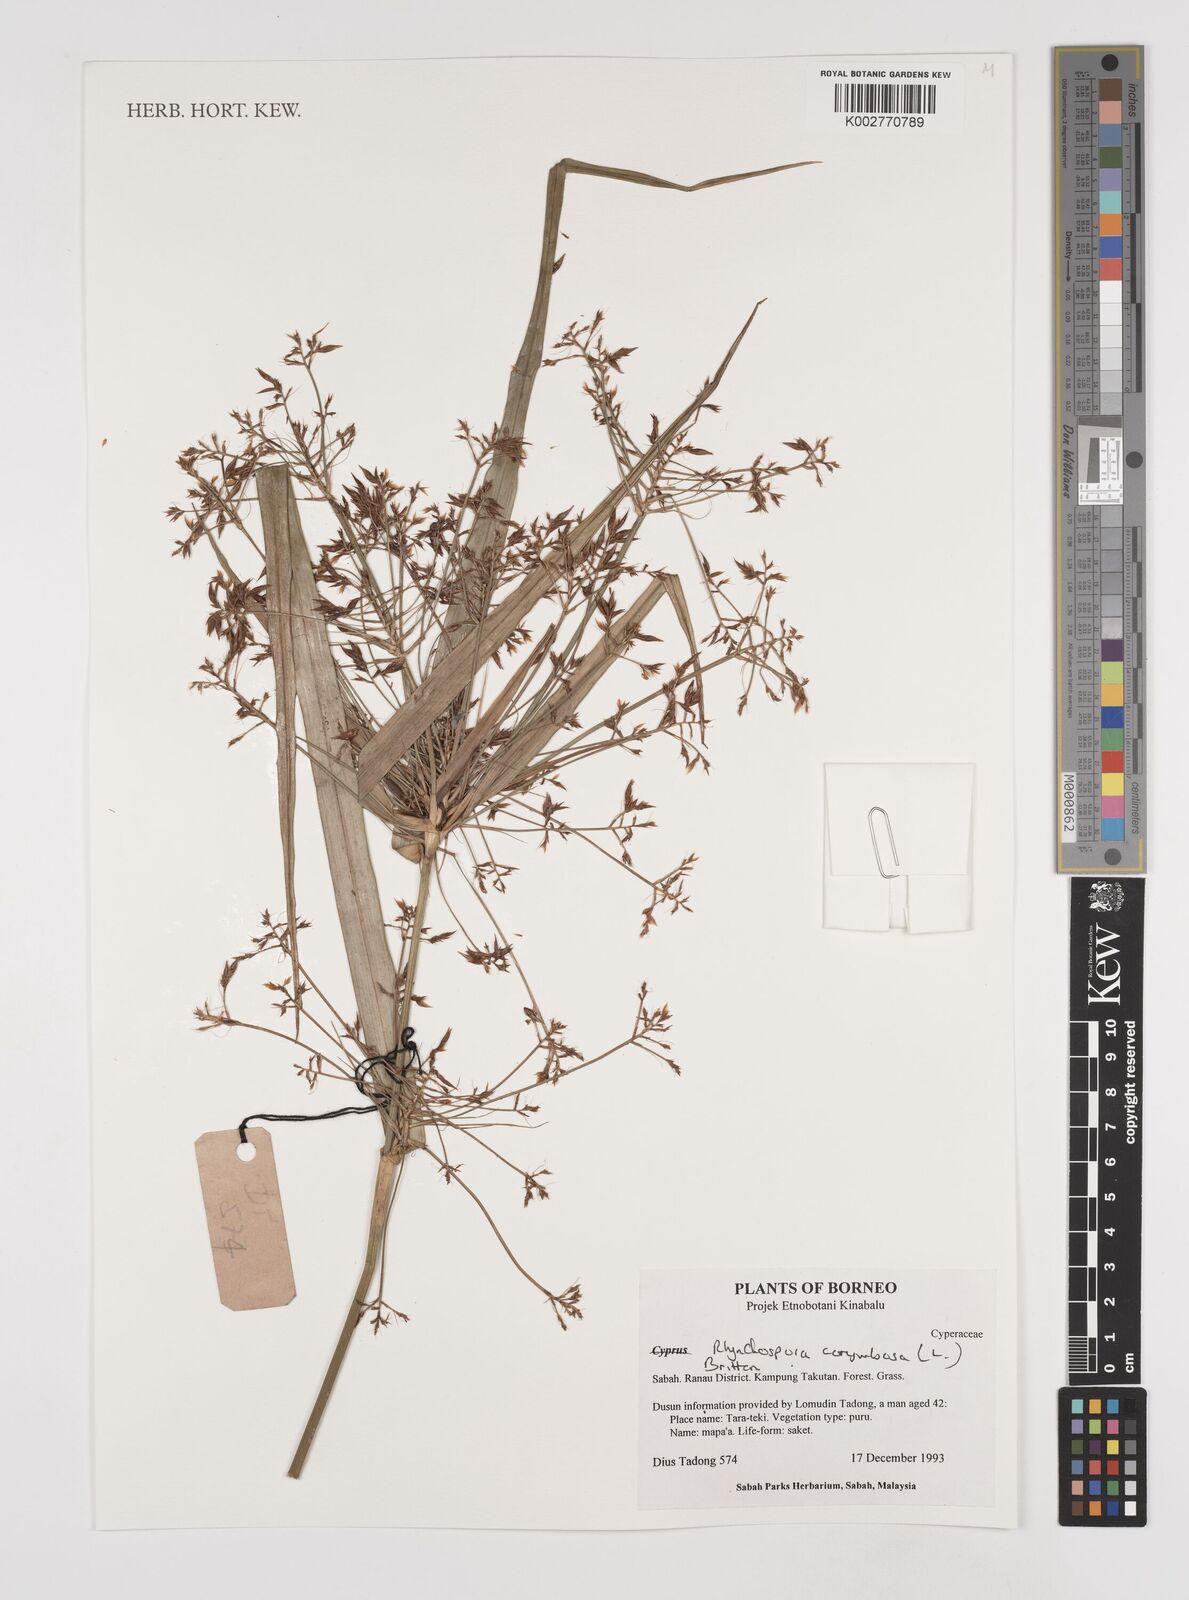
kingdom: Plantae
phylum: Tracheophyta
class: Liliopsida
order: Poales
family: Cyperaceae
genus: Rhynchospora
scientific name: Rhynchospora corymbosa
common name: Golden beak sedge
